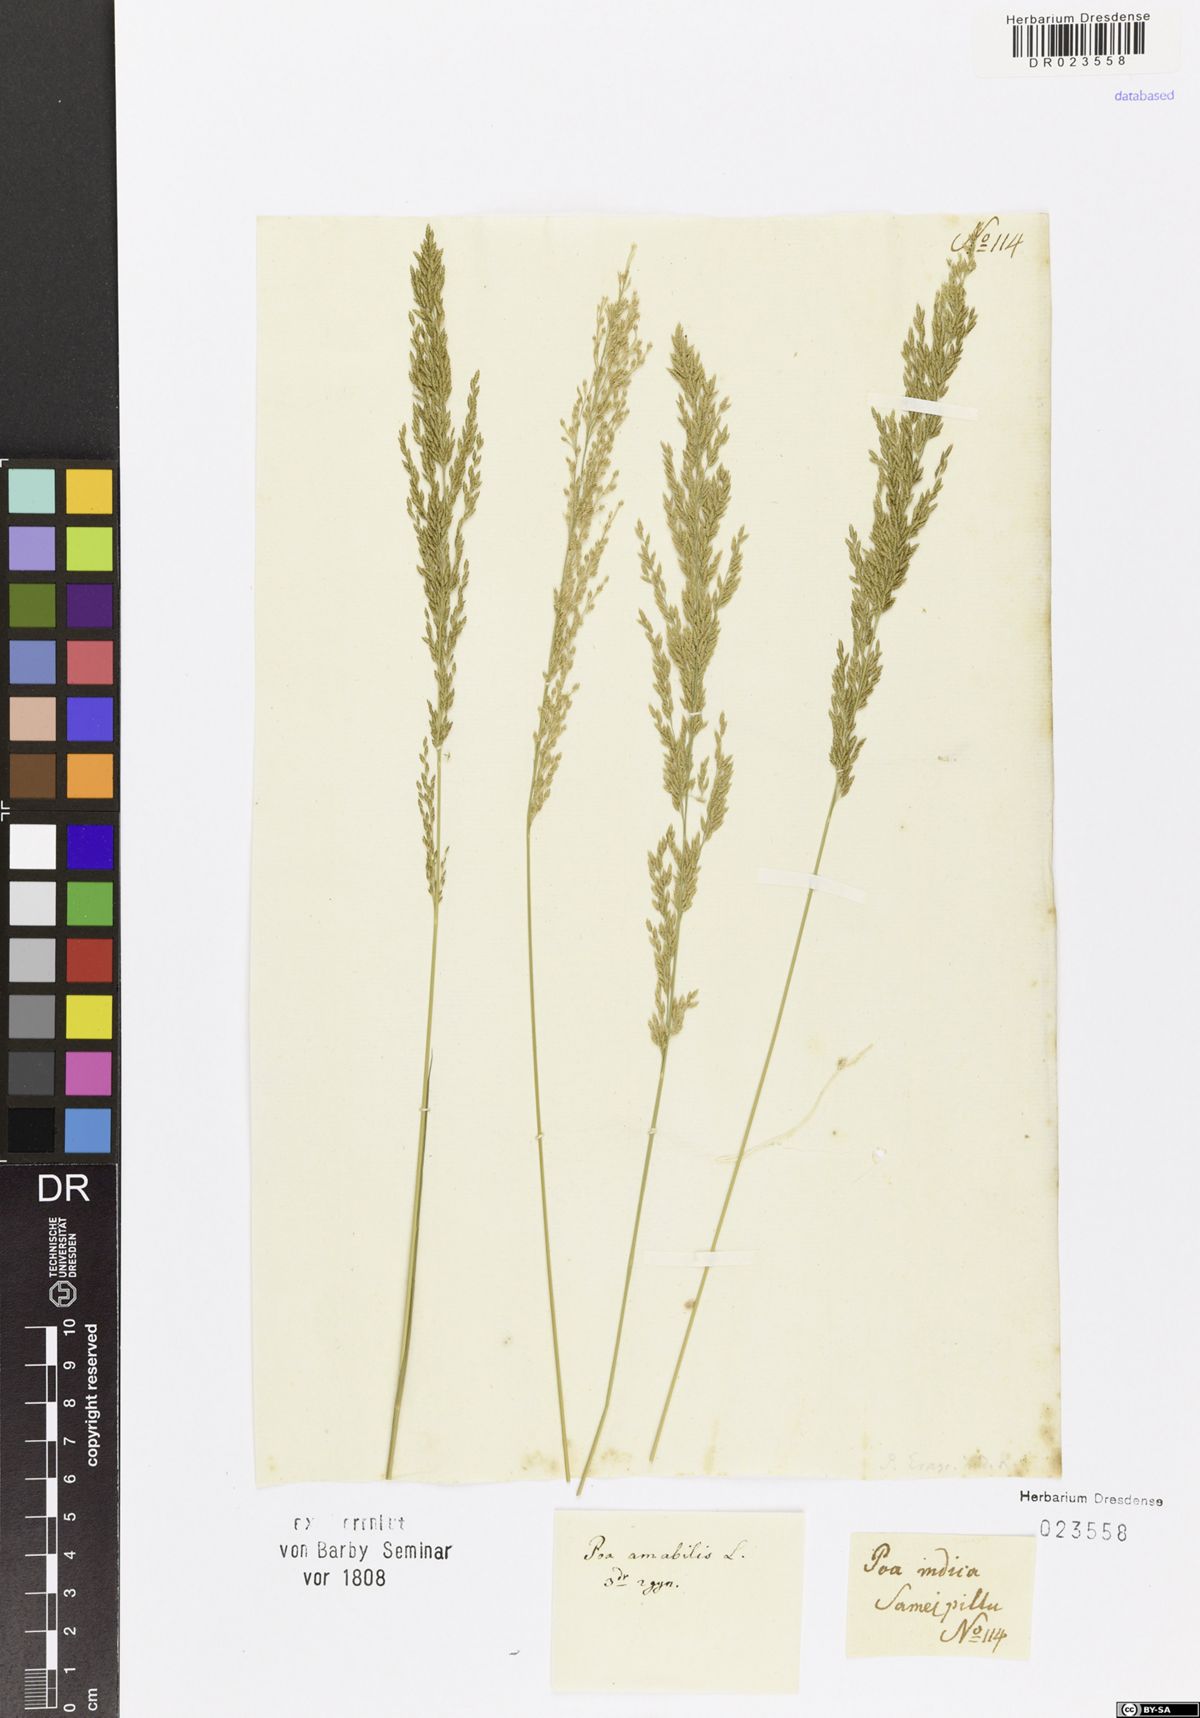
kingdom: Plantae
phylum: Tracheophyta
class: Liliopsida
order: Poales
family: Poaceae
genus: Eragrostis
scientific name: Eragrostis viscosa
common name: Sticky love grass
